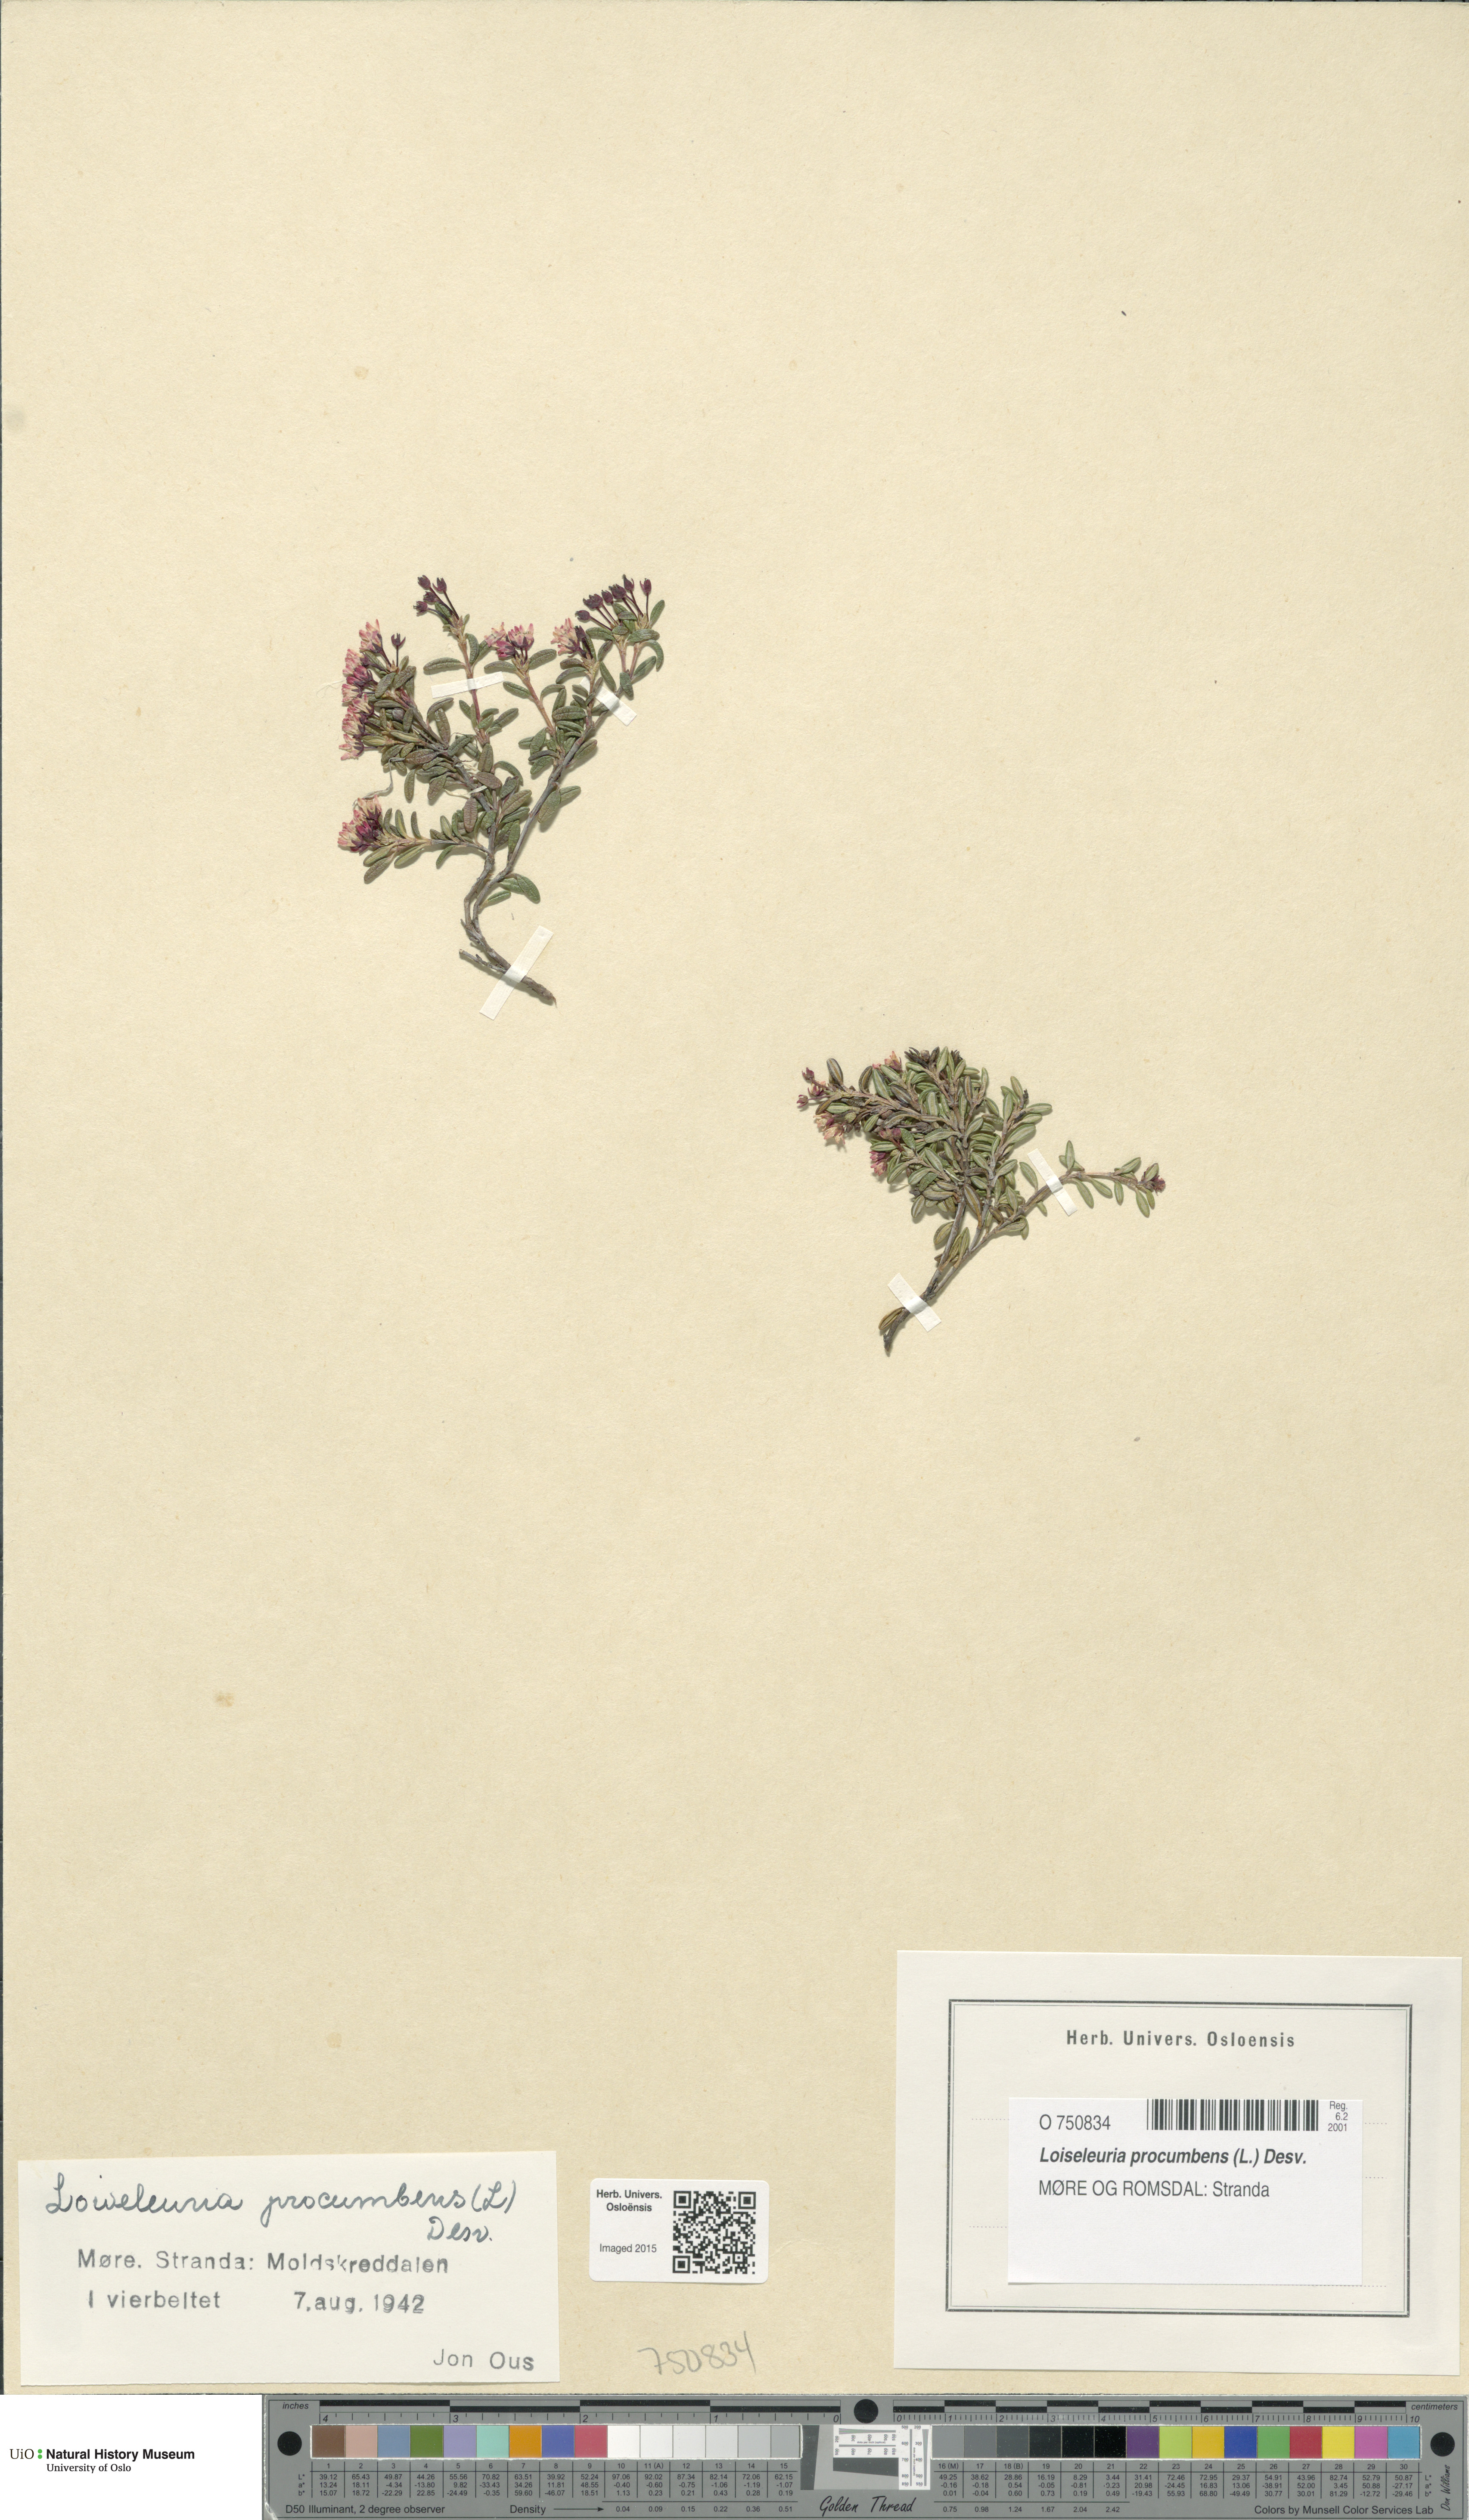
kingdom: Plantae
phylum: Tracheophyta
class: Magnoliopsida
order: Ericales
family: Ericaceae
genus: Kalmia
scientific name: Kalmia procumbens
